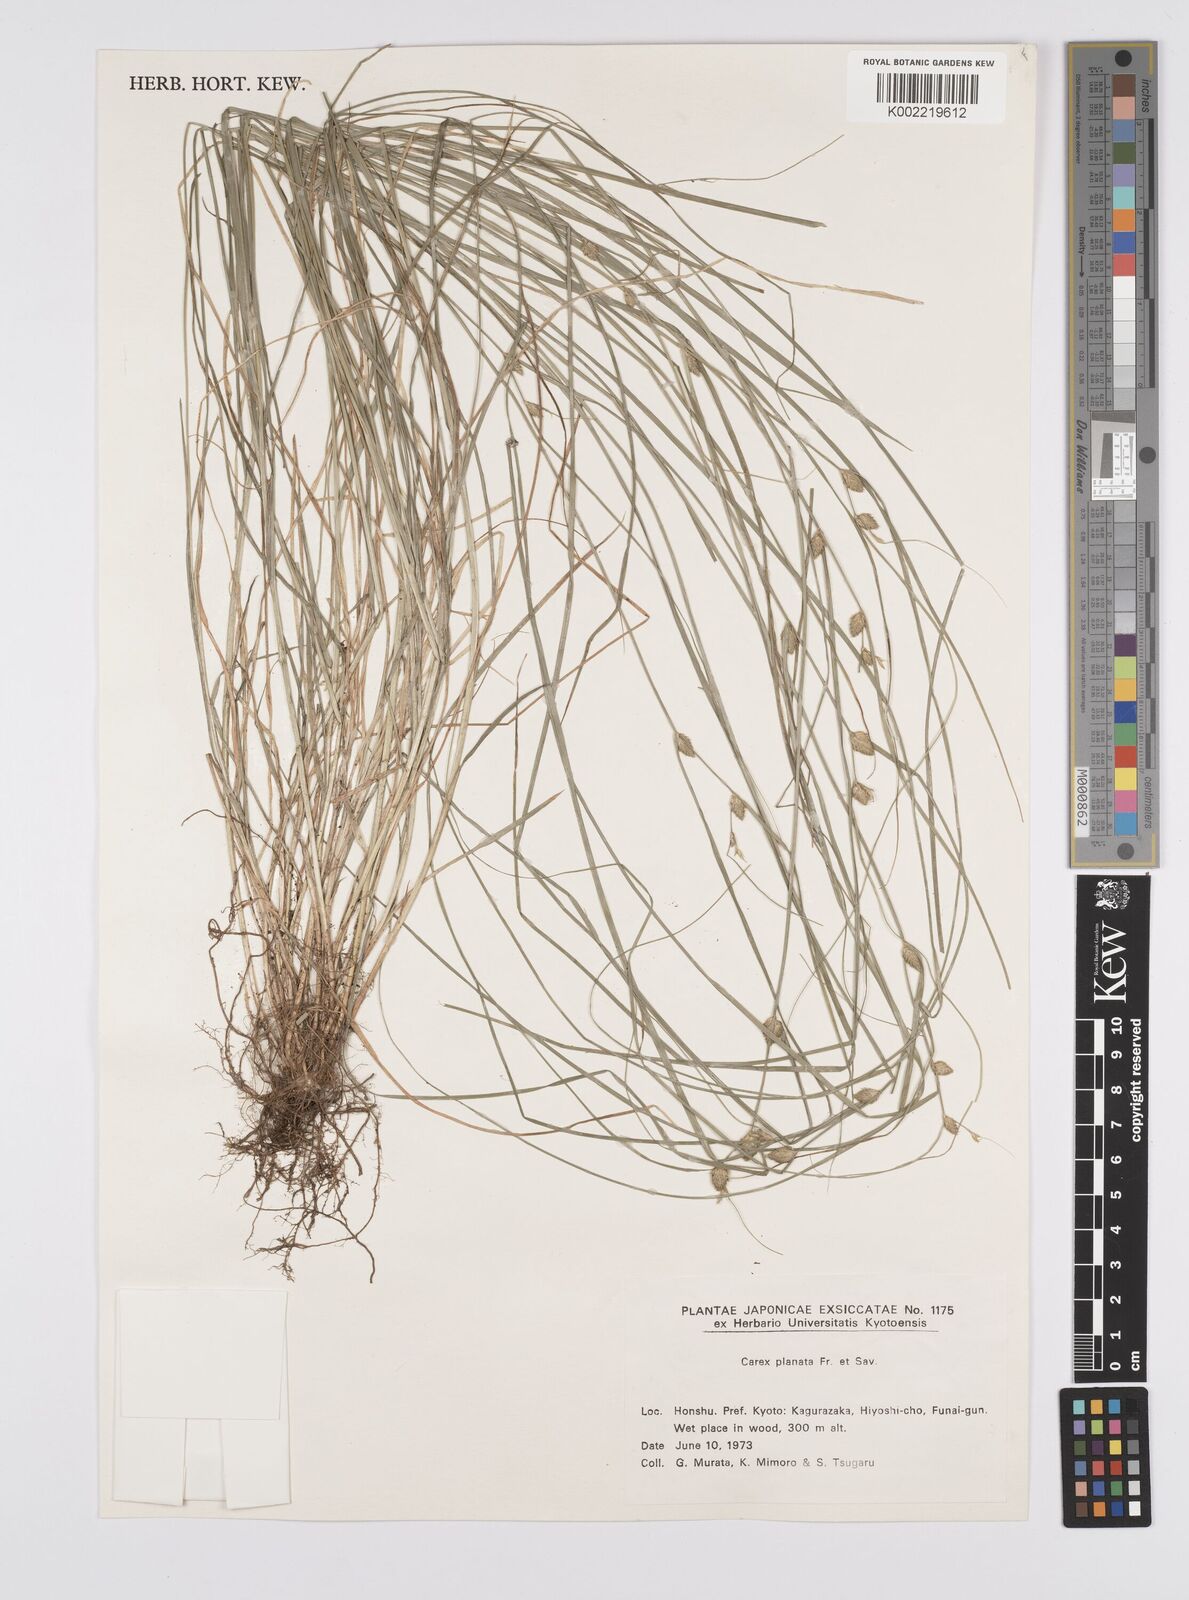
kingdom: Plantae
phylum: Tracheophyta
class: Liliopsida
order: Poales
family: Cyperaceae
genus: Carex
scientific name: Carex planata
